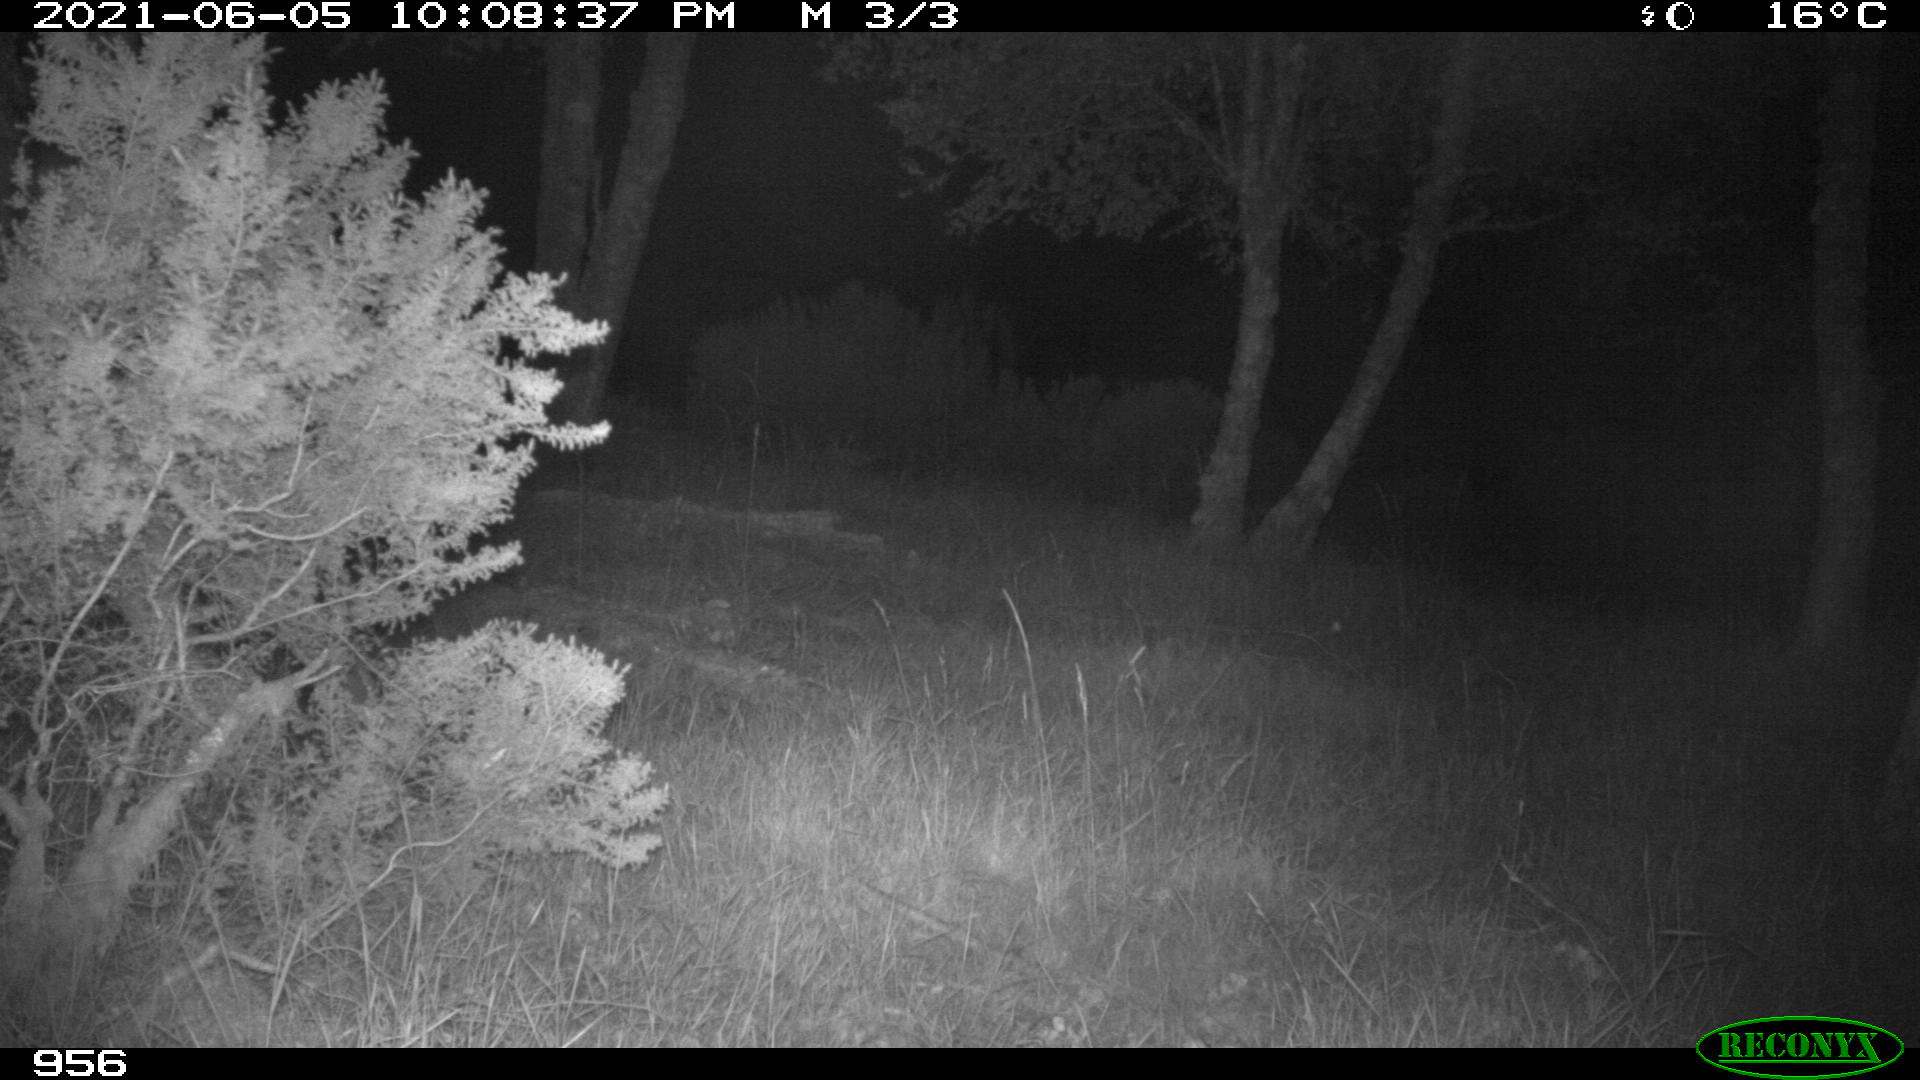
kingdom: Animalia
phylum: Chordata
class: Mammalia
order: Artiodactyla
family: Cervidae
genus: Capreolus
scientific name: Capreolus capreolus
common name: Western roe deer
